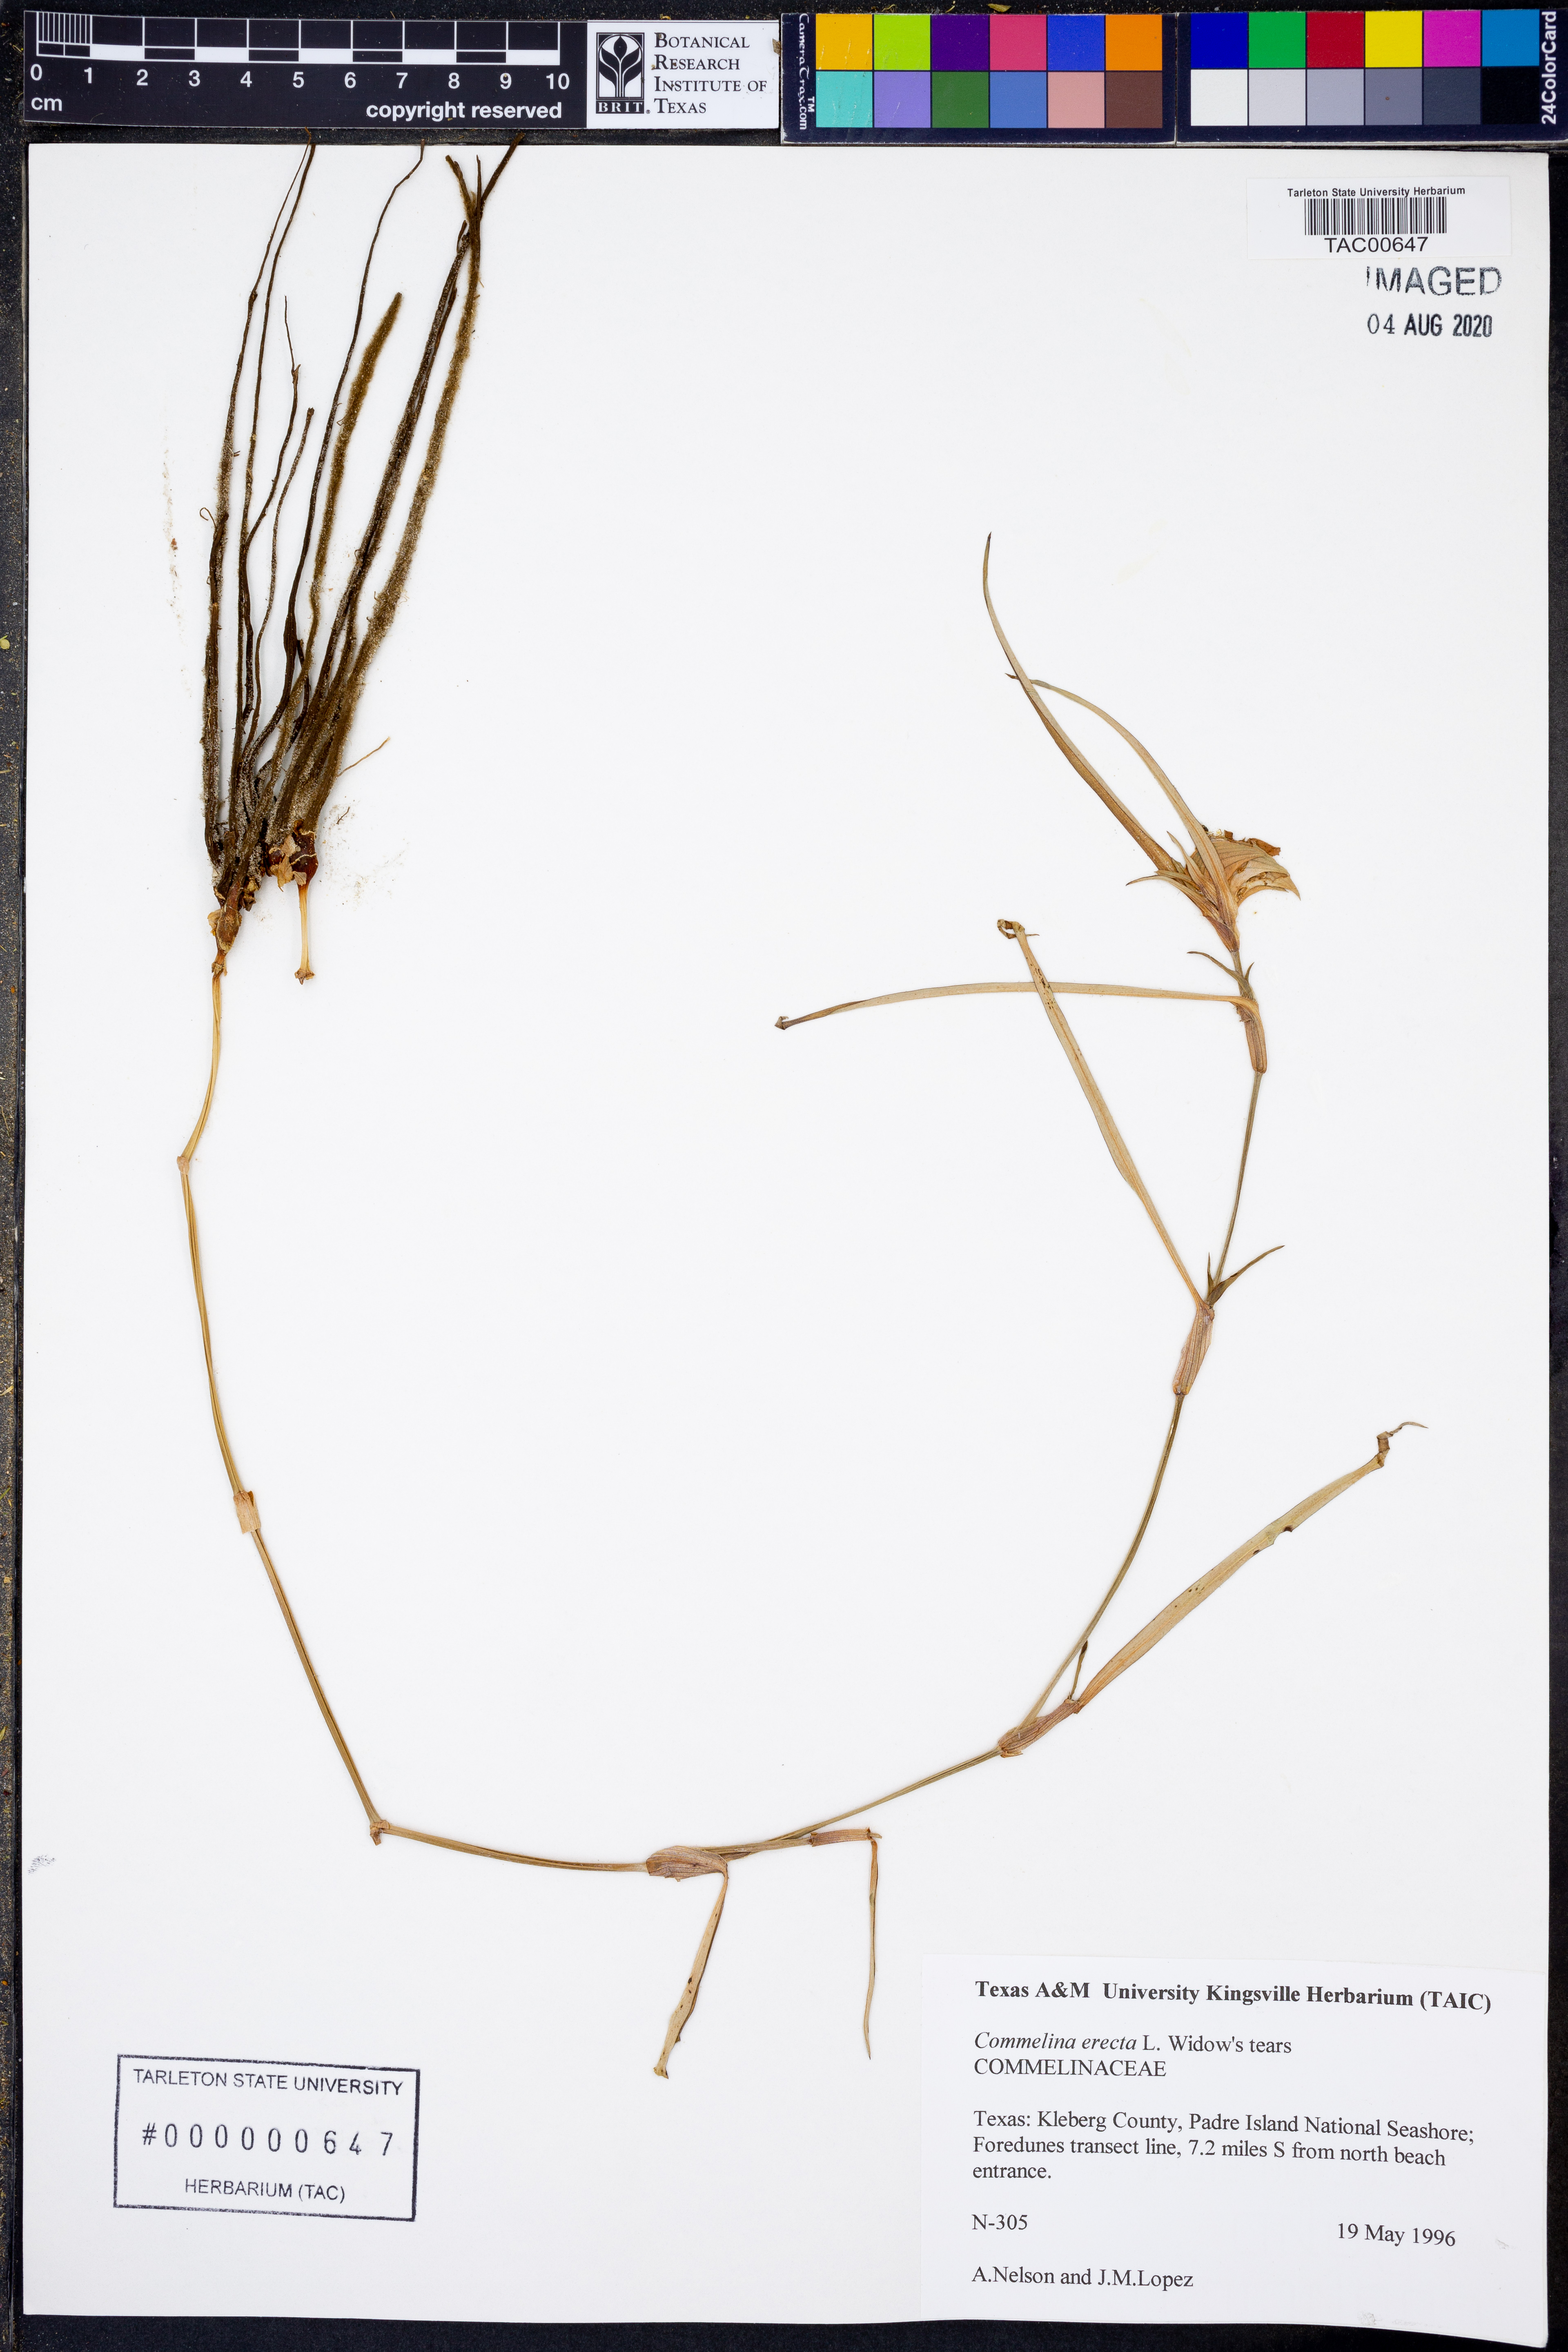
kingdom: Plantae
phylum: Tracheophyta
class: Liliopsida
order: Commelinales
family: Commelinaceae
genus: Commelina
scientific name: Commelina erecta
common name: Blousel blommetjie
